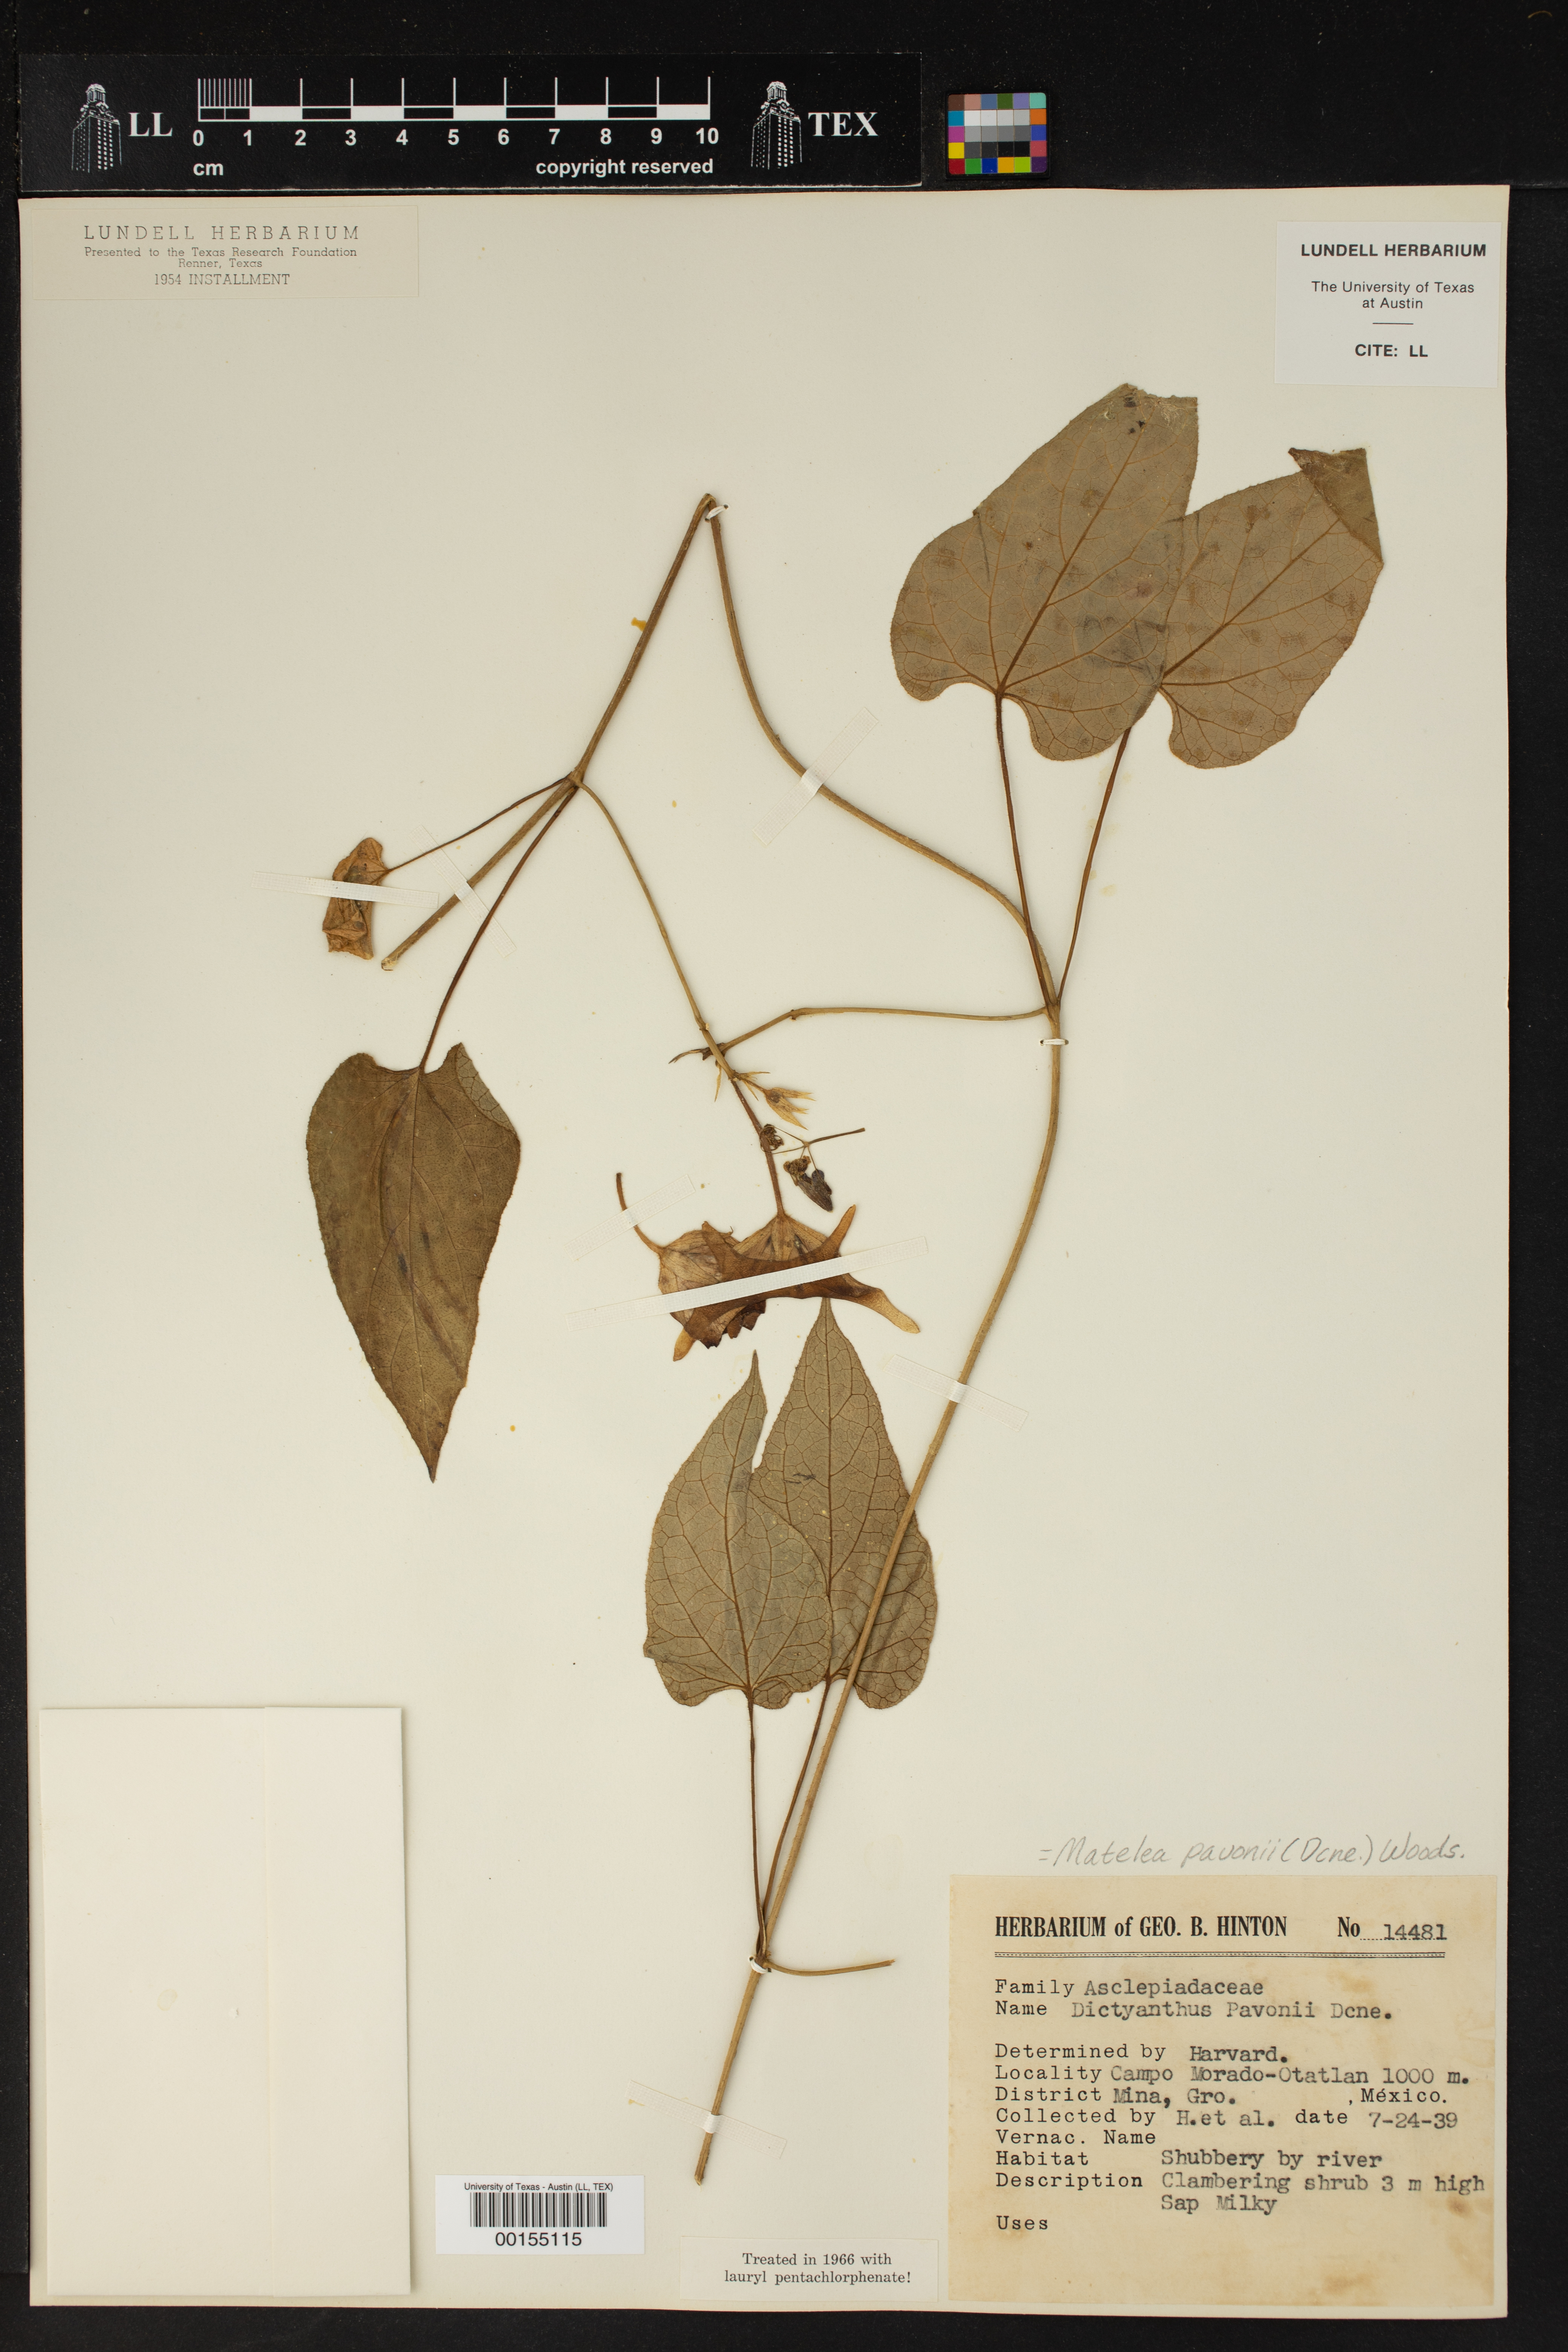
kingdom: Plantae
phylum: Tracheophyta
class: Magnoliopsida
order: Gentianales
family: Apocynaceae
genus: Dictyanthus
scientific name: Dictyanthus pavonii
